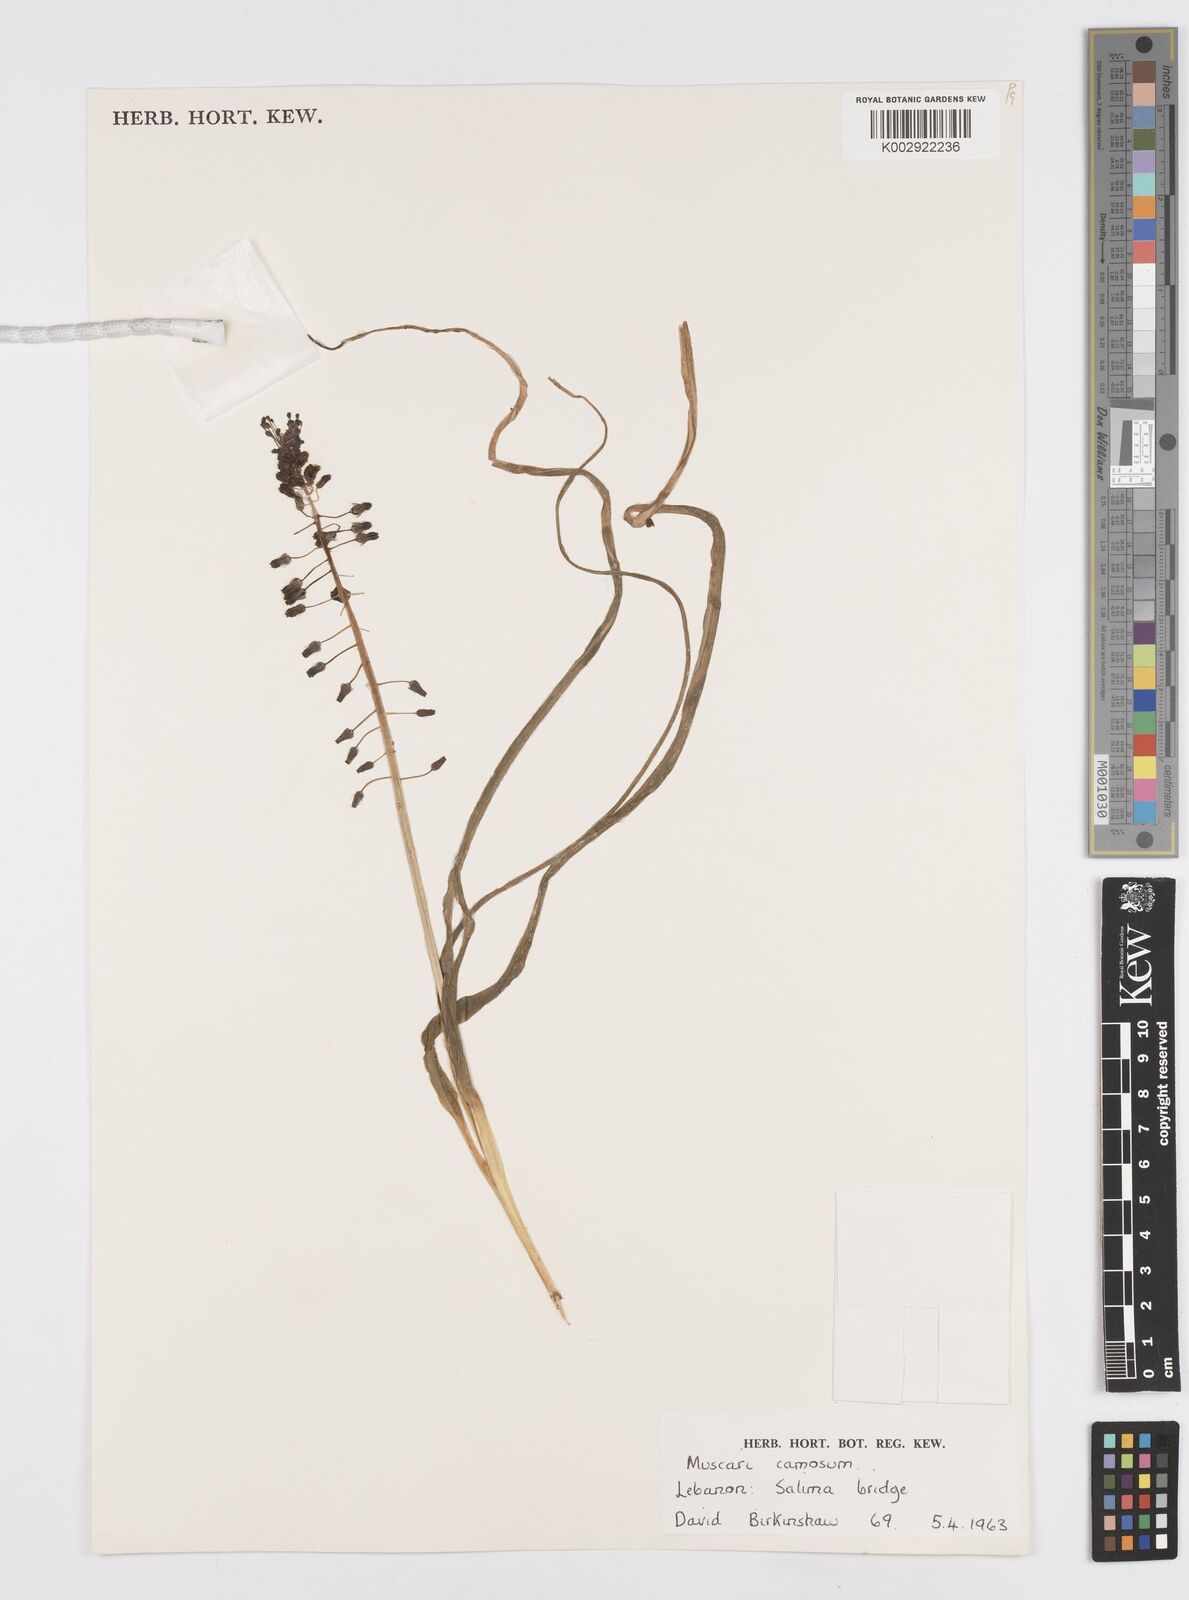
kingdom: Plantae
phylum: Tracheophyta
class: Liliopsida
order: Asparagales
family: Asparagaceae
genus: Muscari
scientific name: Muscari comosum
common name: Tassel hyacinth
